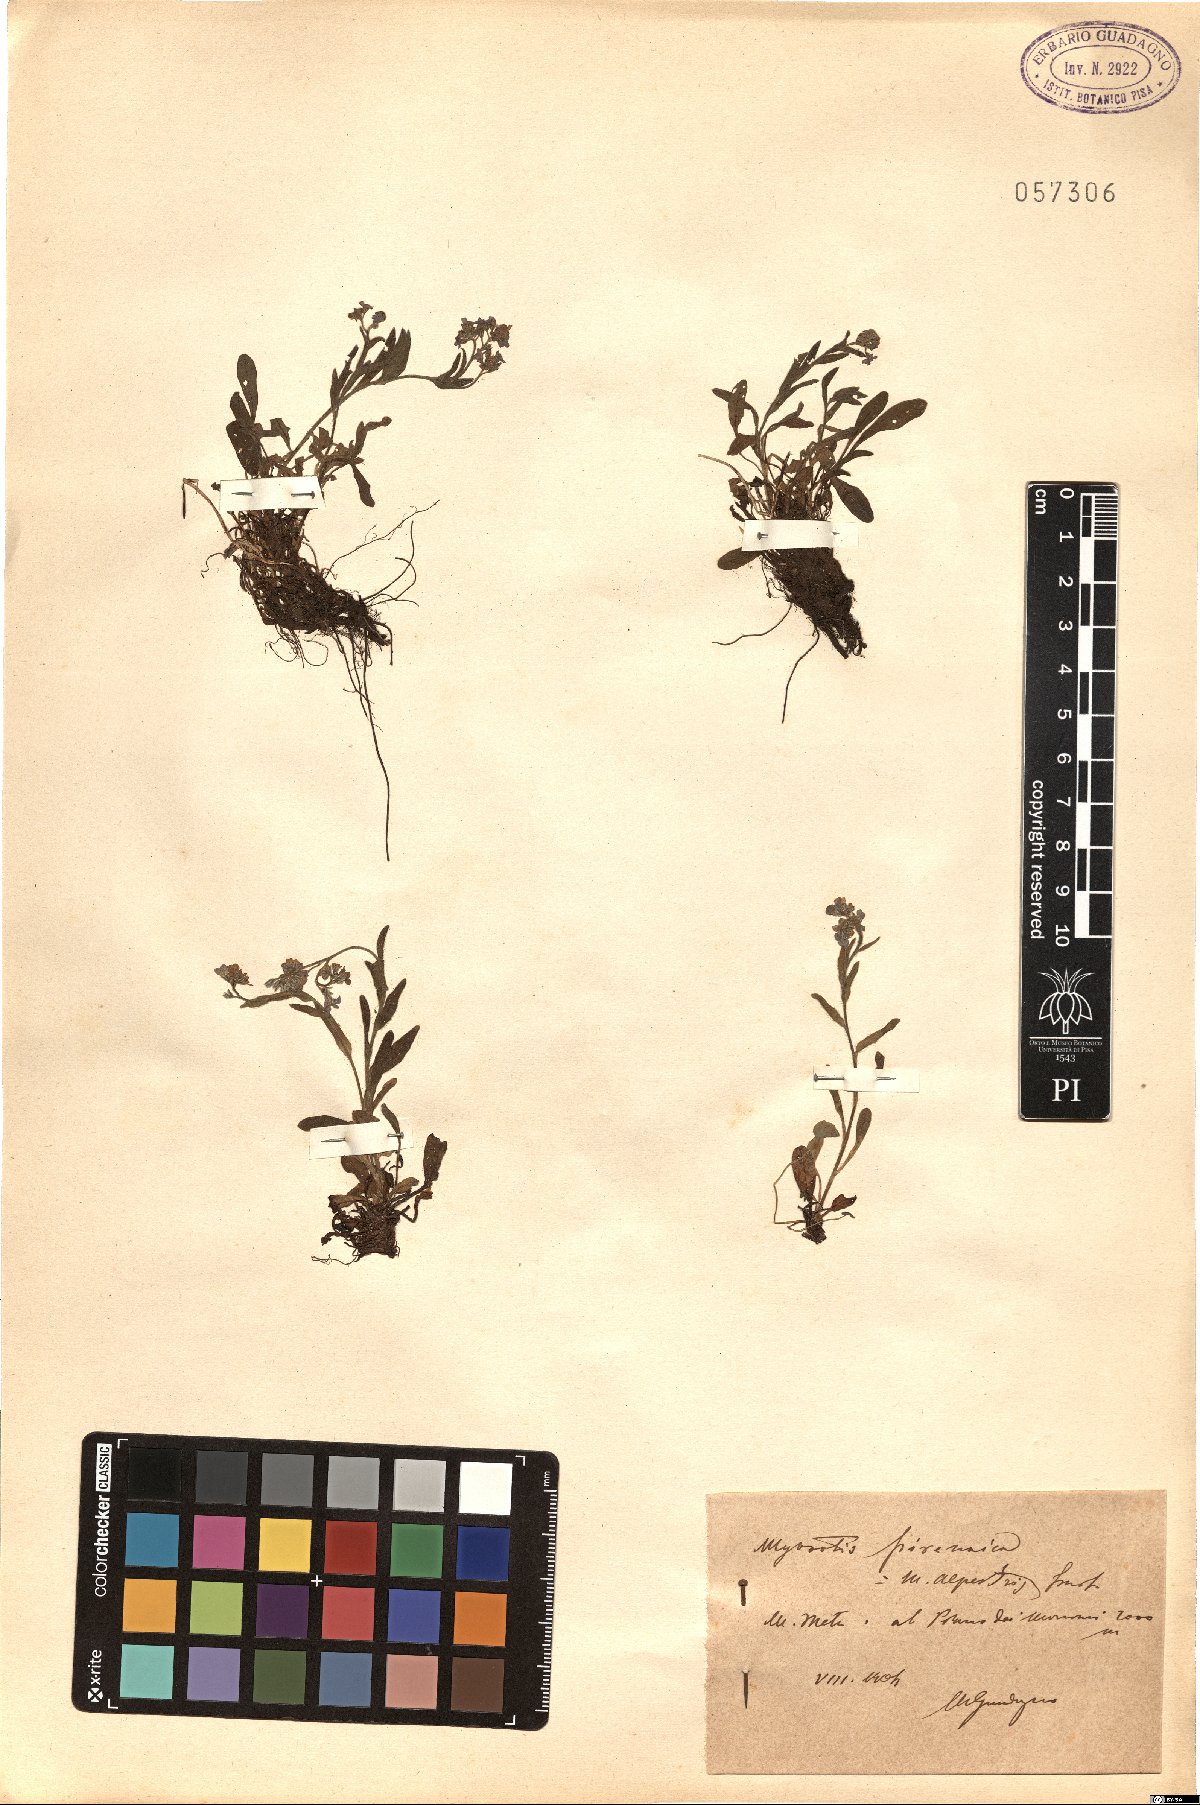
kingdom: Plantae
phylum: Tracheophyta
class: Magnoliopsida
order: Boraginales
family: Boraginaceae
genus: Myosotis
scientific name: Myosotis alpestris
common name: Alpine forget-me-not
